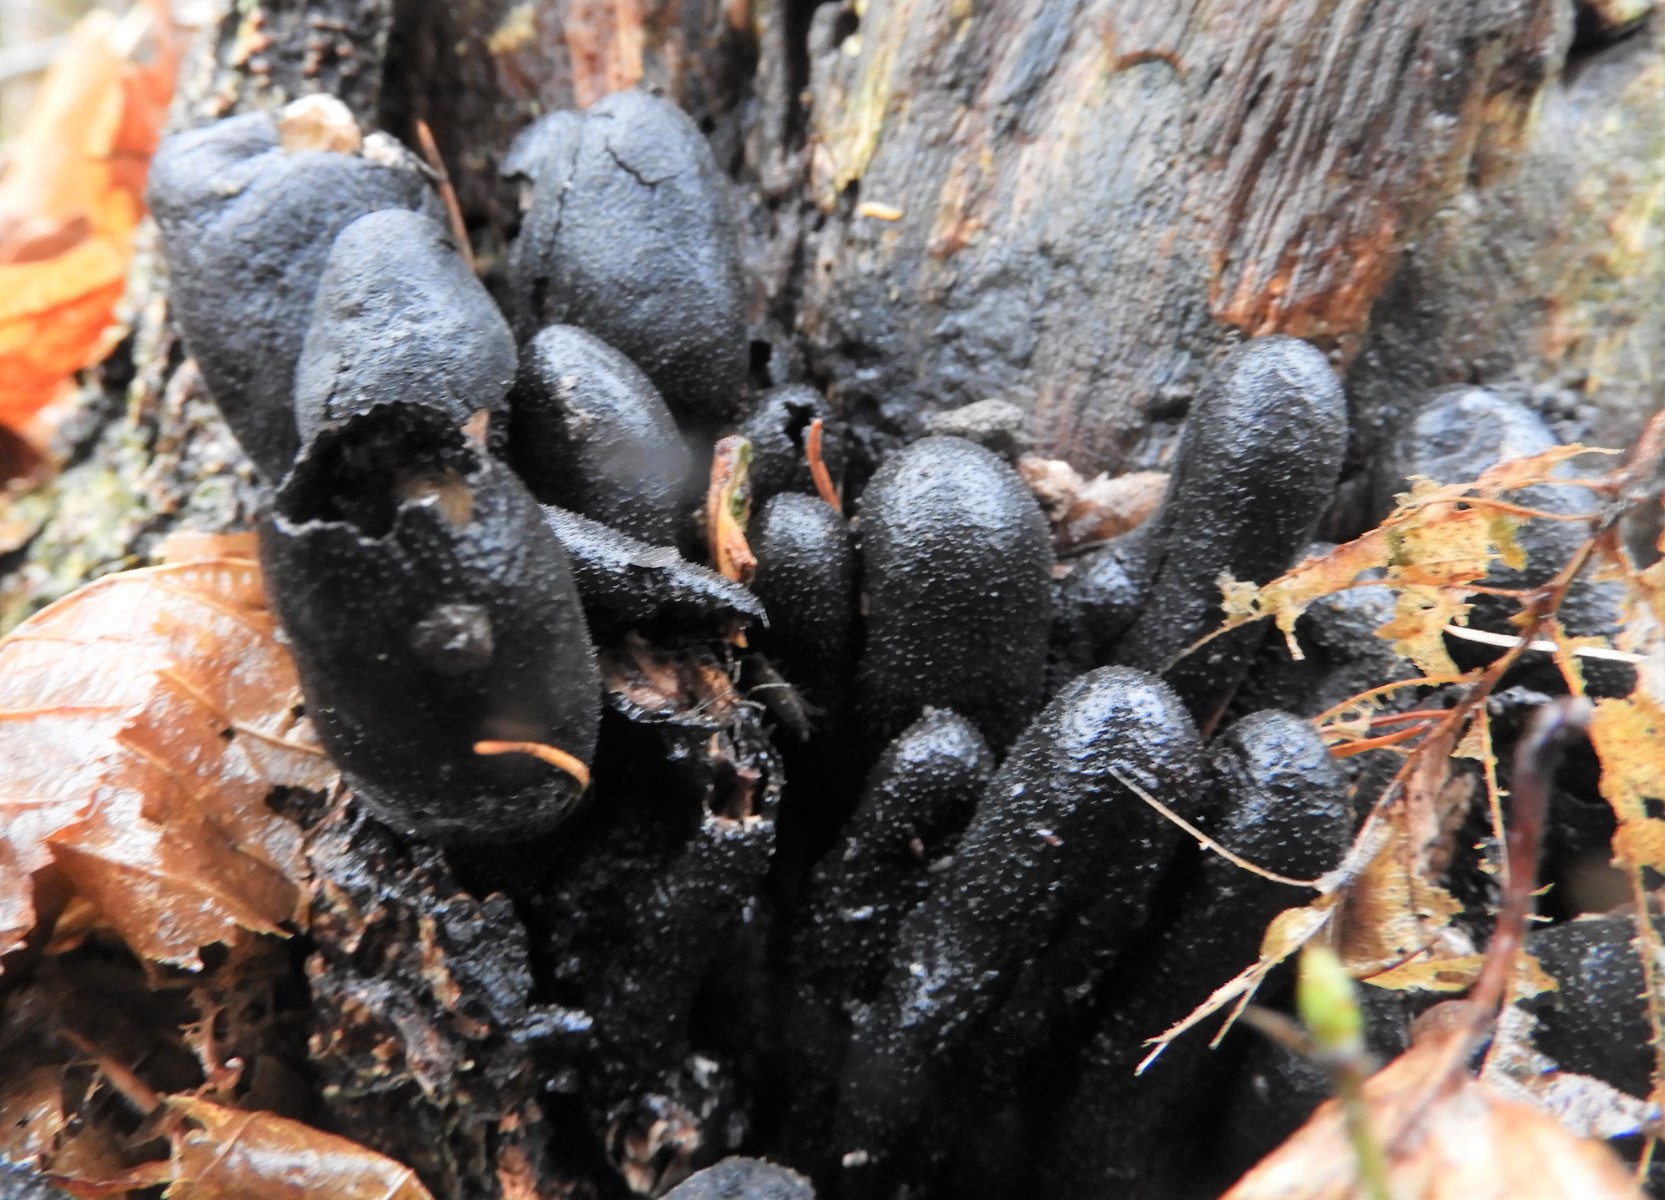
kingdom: Fungi
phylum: Ascomycota
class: Sordariomycetes
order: Xylariales
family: Xylariaceae
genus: Xylaria
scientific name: Xylaria polymorpha
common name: kølle-stødsvamp
